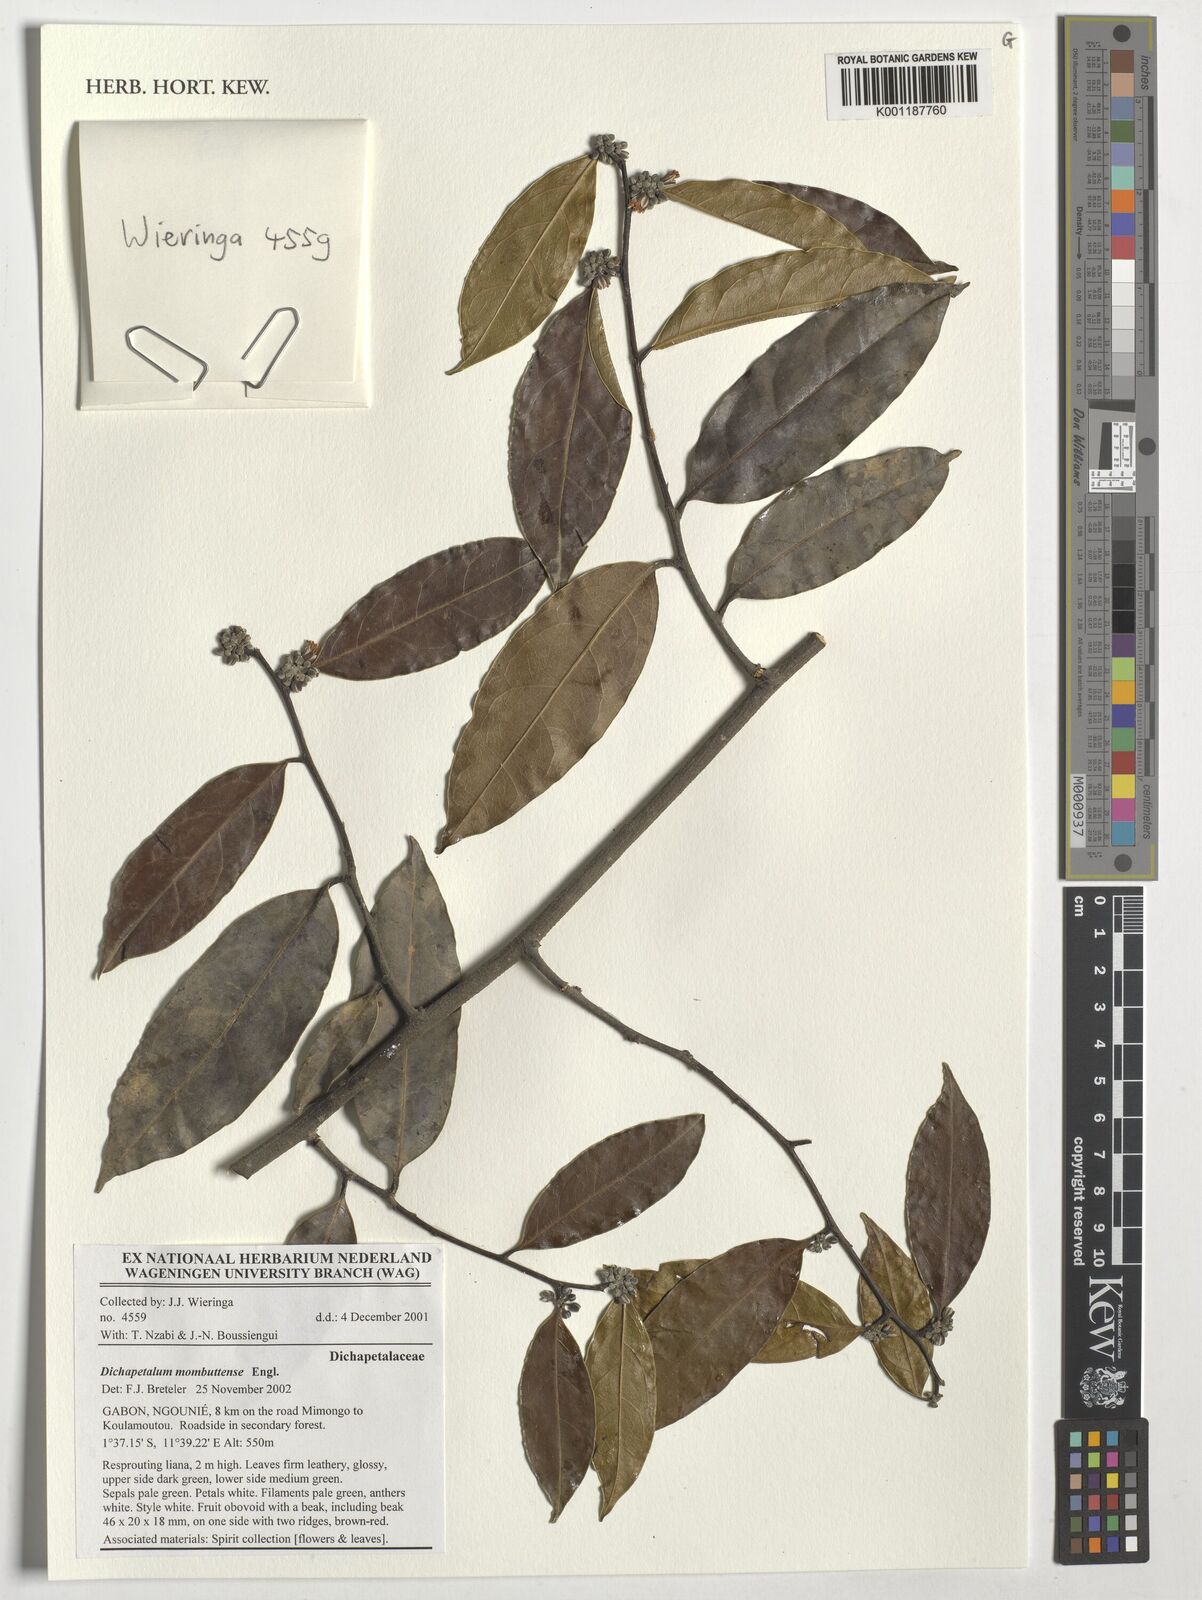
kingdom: Plantae
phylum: Tracheophyta
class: Magnoliopsida
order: Malpighiales
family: Dichapetalaceae
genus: Dichapetalum
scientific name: Dichapetalum mombuttense
